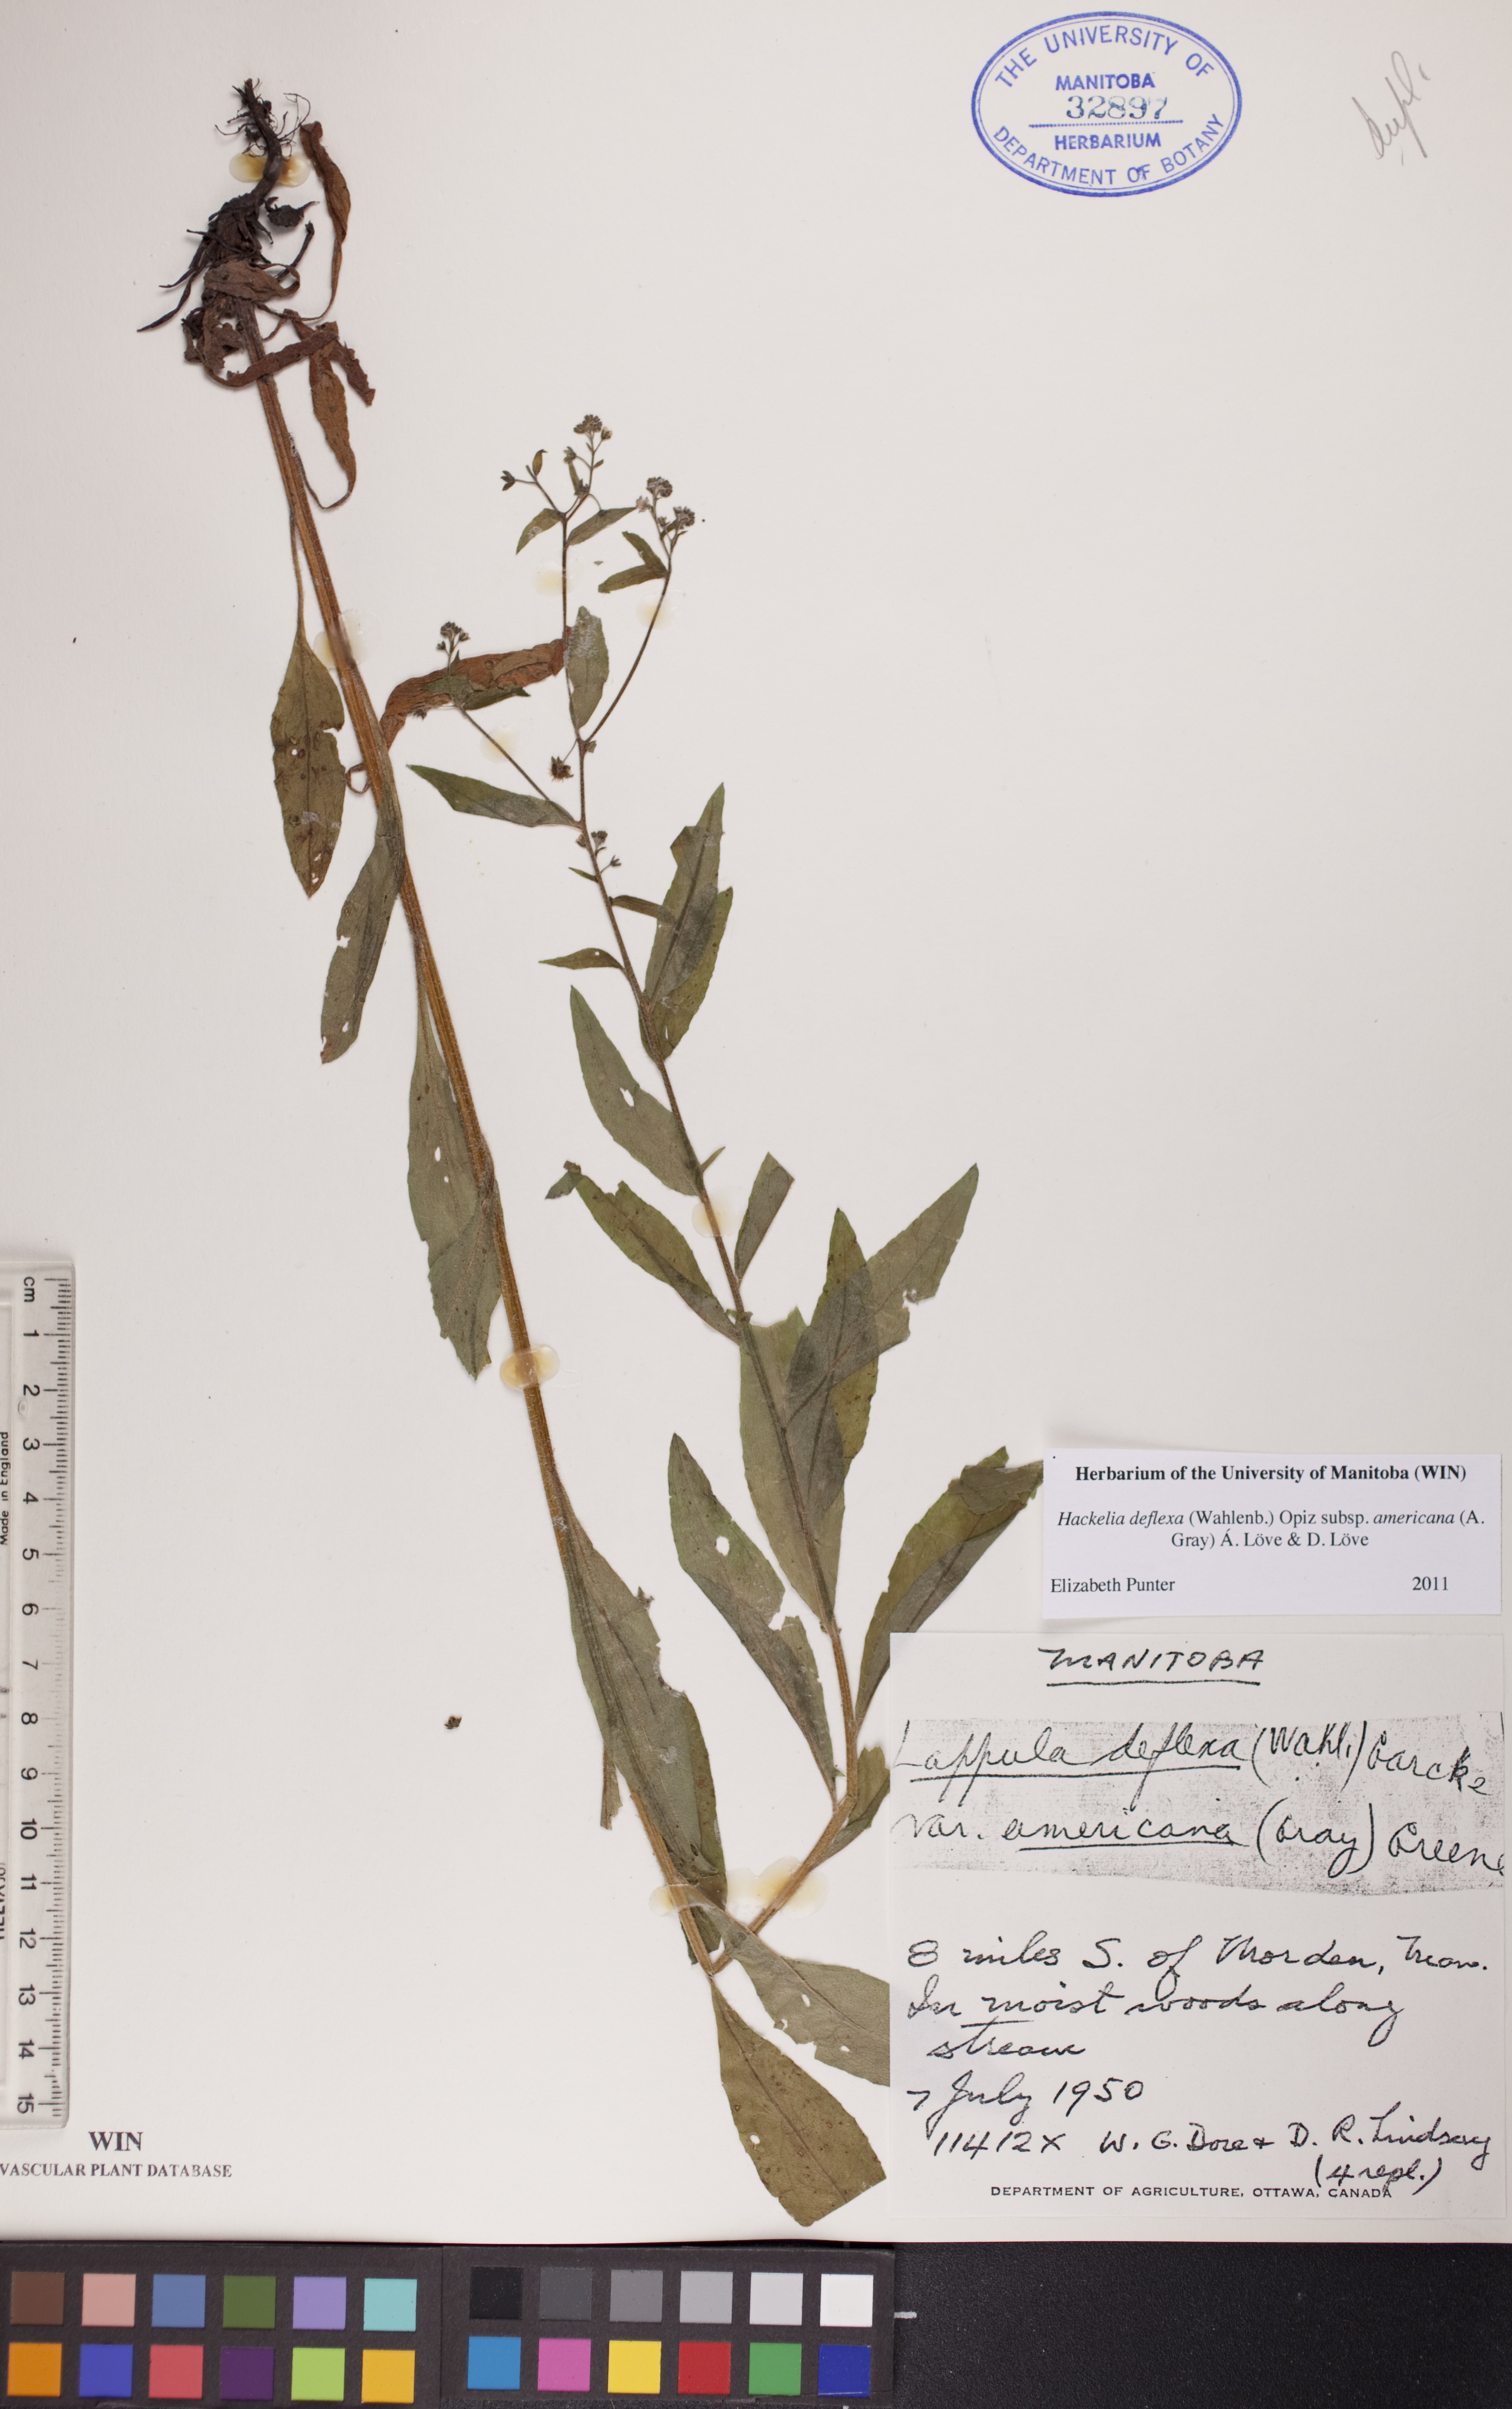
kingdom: Plantae
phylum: Tracheophyta
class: Magnoliopsida
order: Boraginales
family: Boraginaceae
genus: Hackelia
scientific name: Hackelia deflexa
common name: Nodding stickseed
